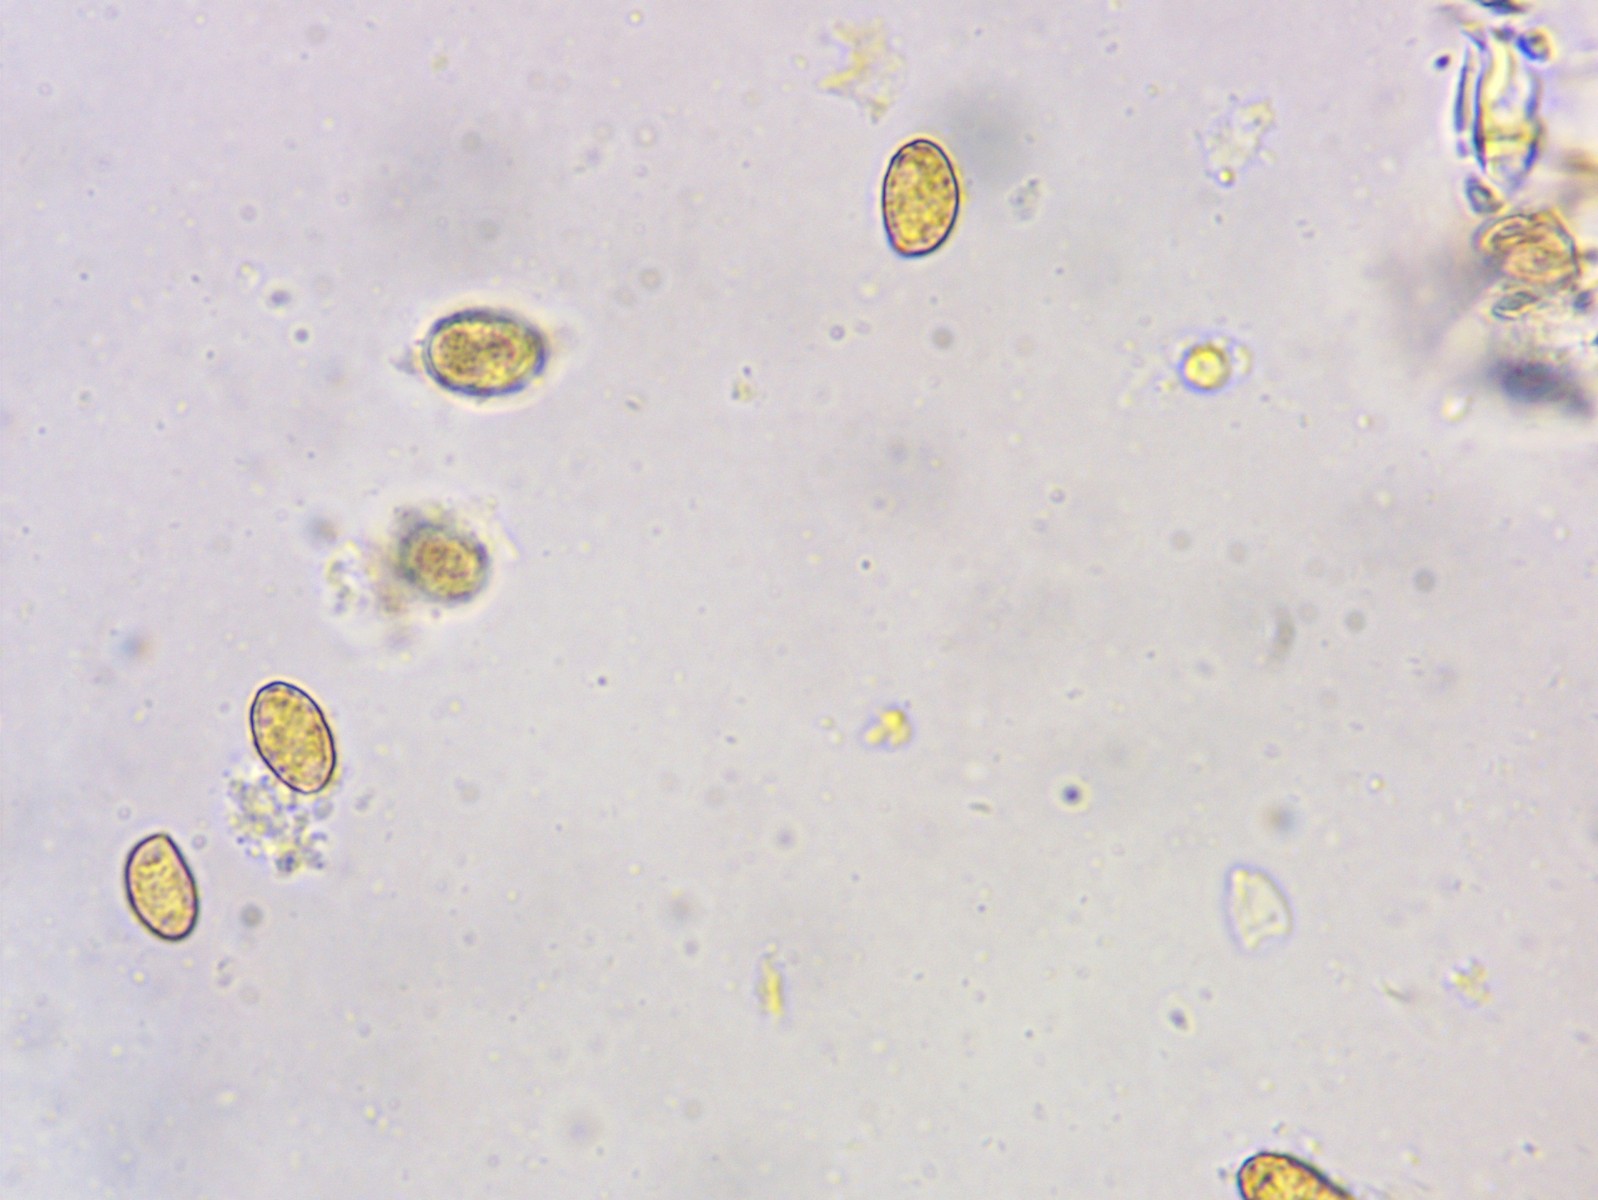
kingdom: Fungi
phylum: Basidiomycota
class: Agaricomycetes
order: Agaricales
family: Cortinariaceae
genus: Cortinarius
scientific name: Cortinarius flabellus
